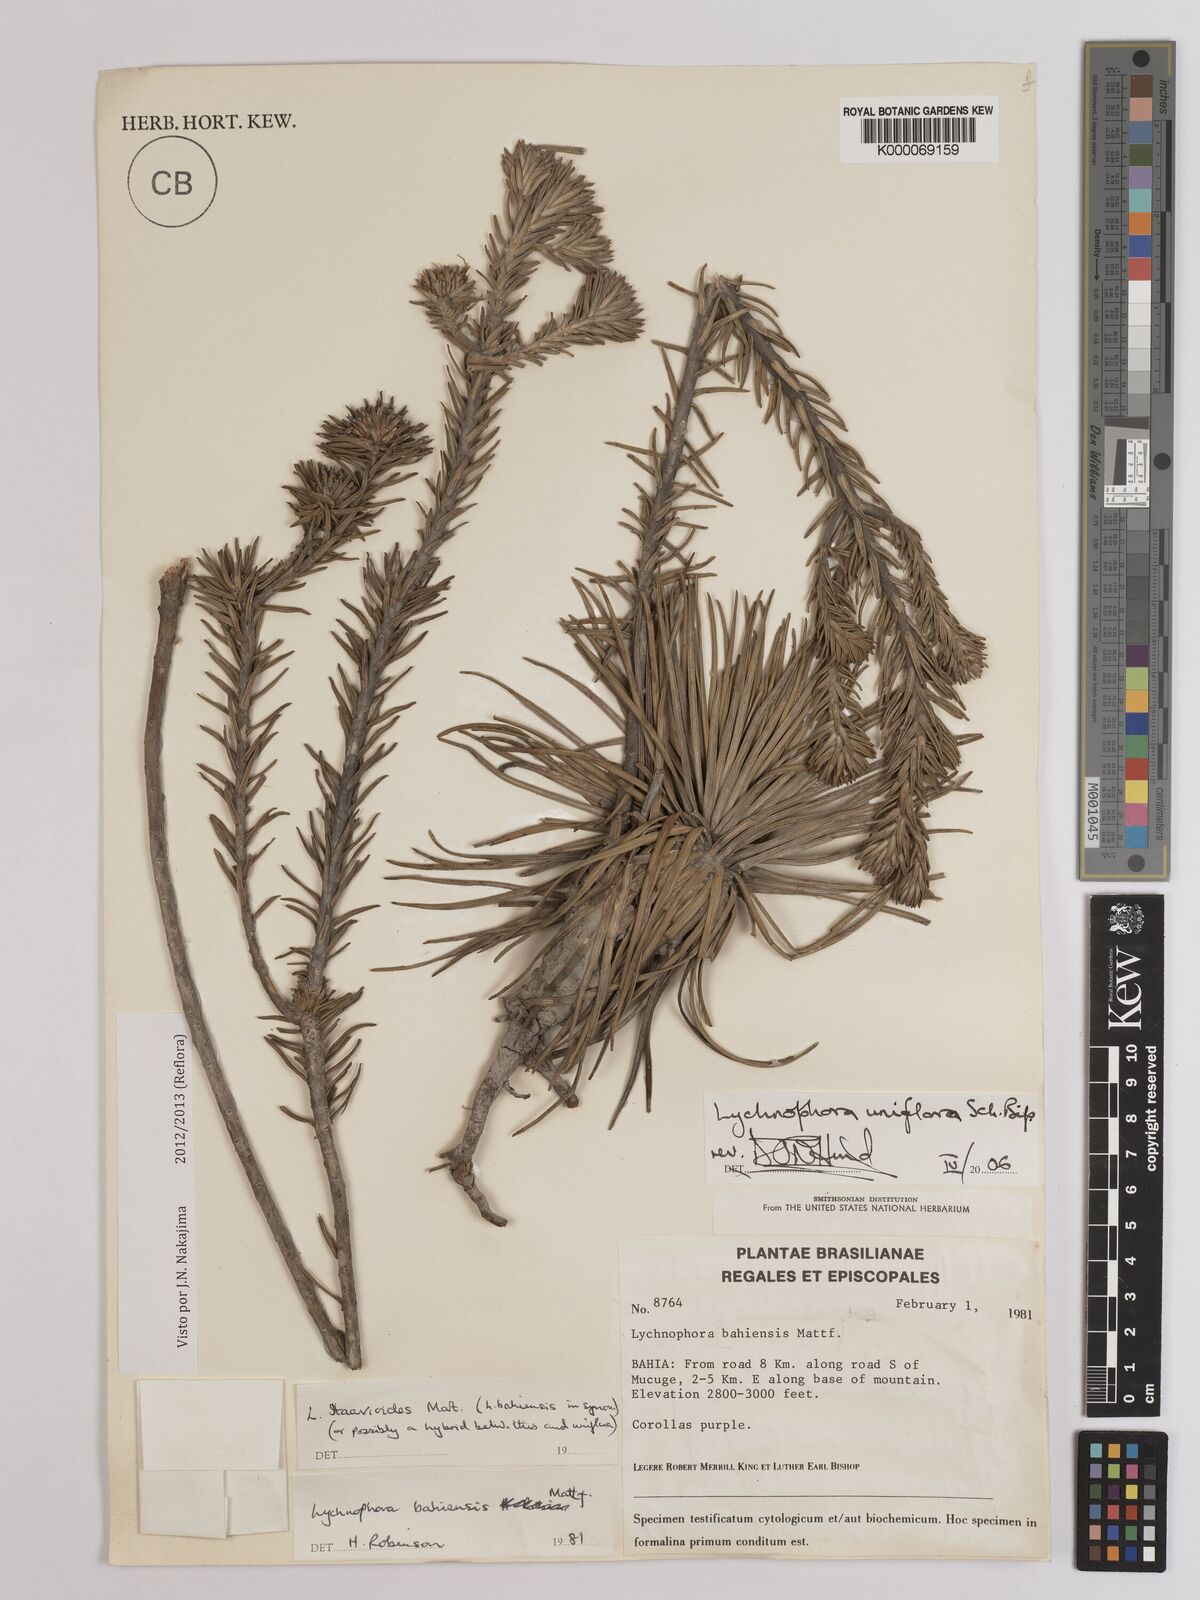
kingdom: Plantae
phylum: Tracheophyta
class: Magnoliopsida
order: Asterales
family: Asteraceae
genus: Lychnophora
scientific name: Lychnophora uniflora
